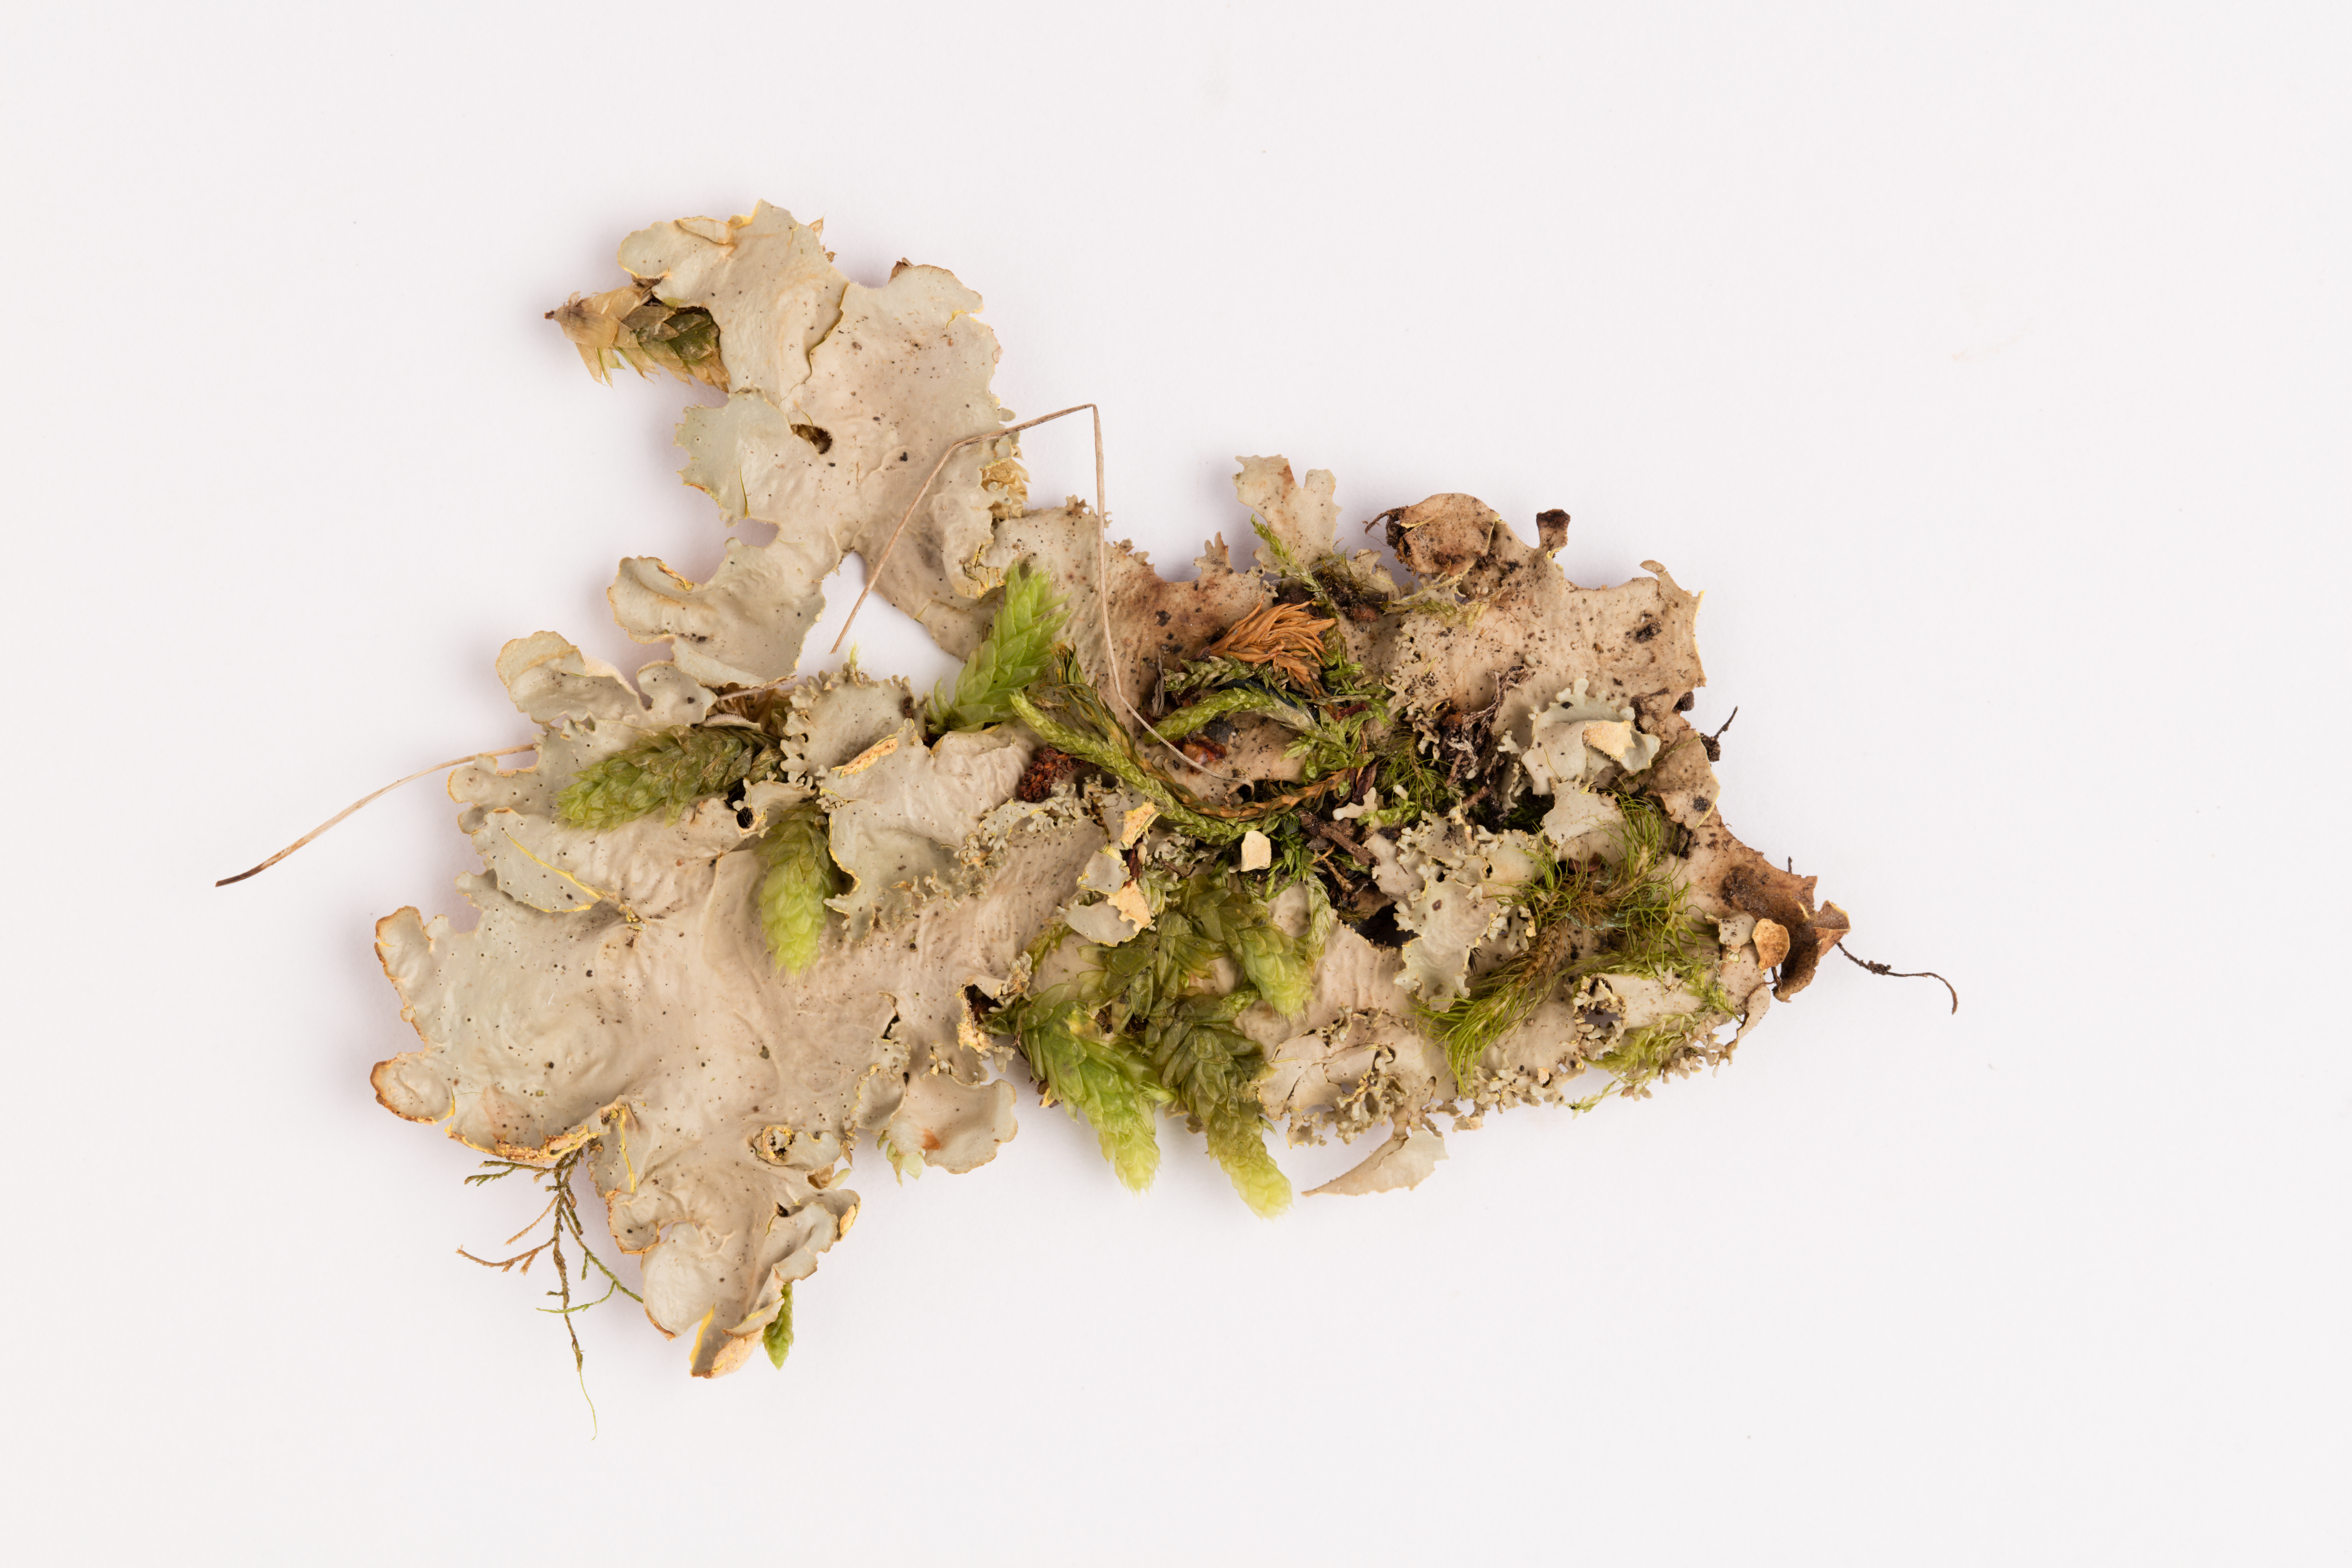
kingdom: Fungi
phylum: Ascomycota
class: Lecanoromycetes
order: Peltigerales
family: Lobariaceae
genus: Podostictina
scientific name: Podostictina degelii
